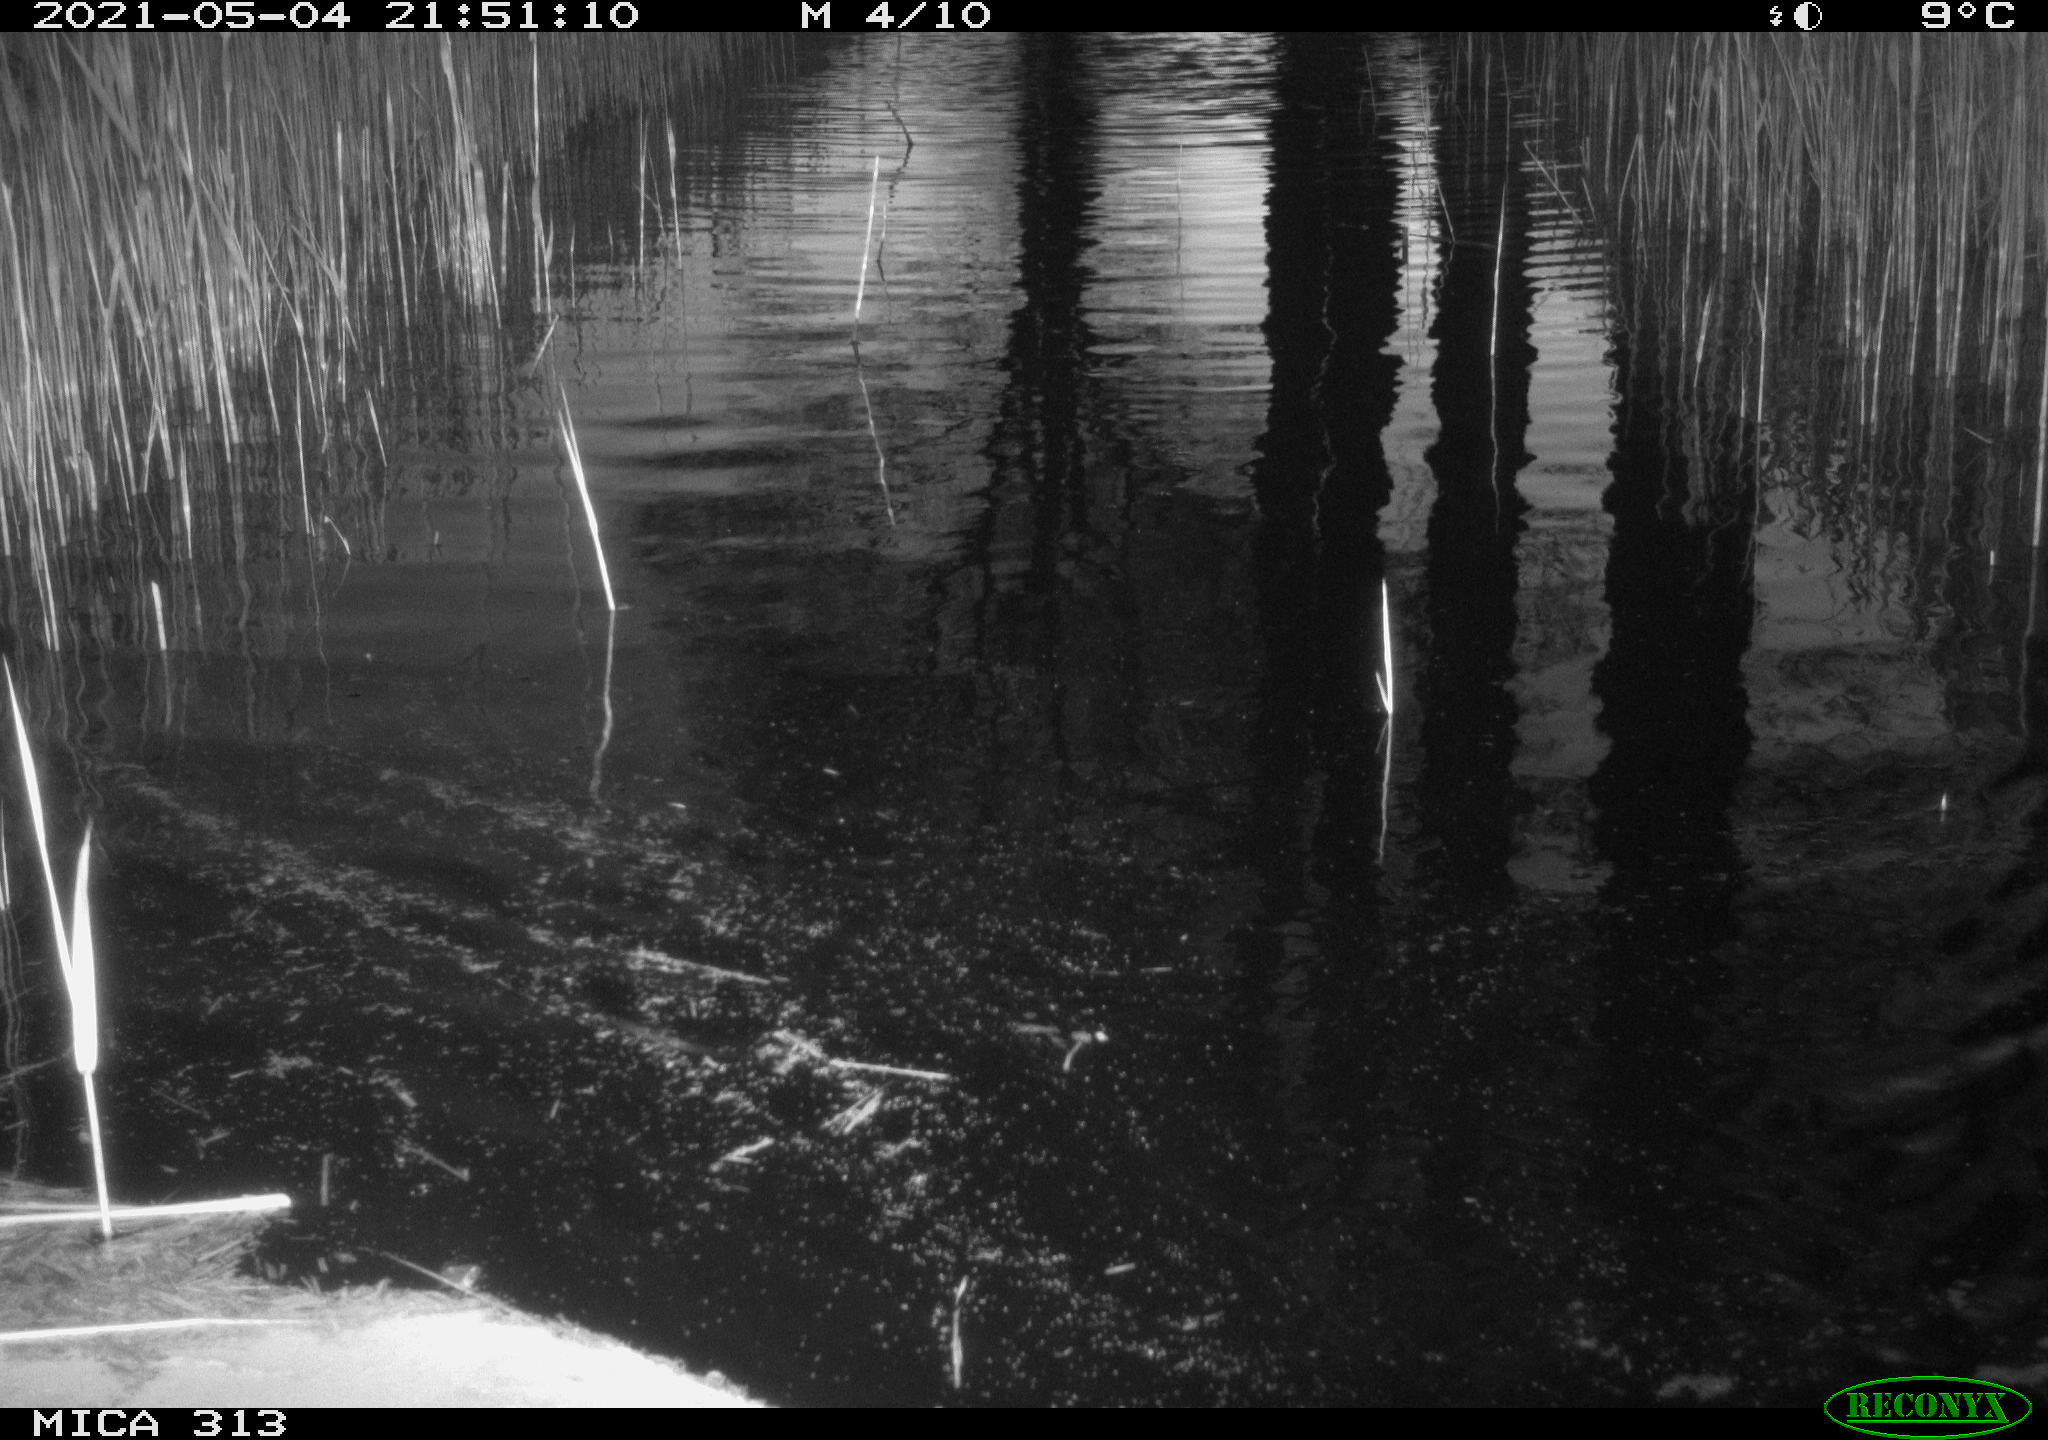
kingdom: Animalia
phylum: Chordata
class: Aves
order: Anseriformes
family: Anatidae
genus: Anas
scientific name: Anas platyrhynchos
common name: Mallard
